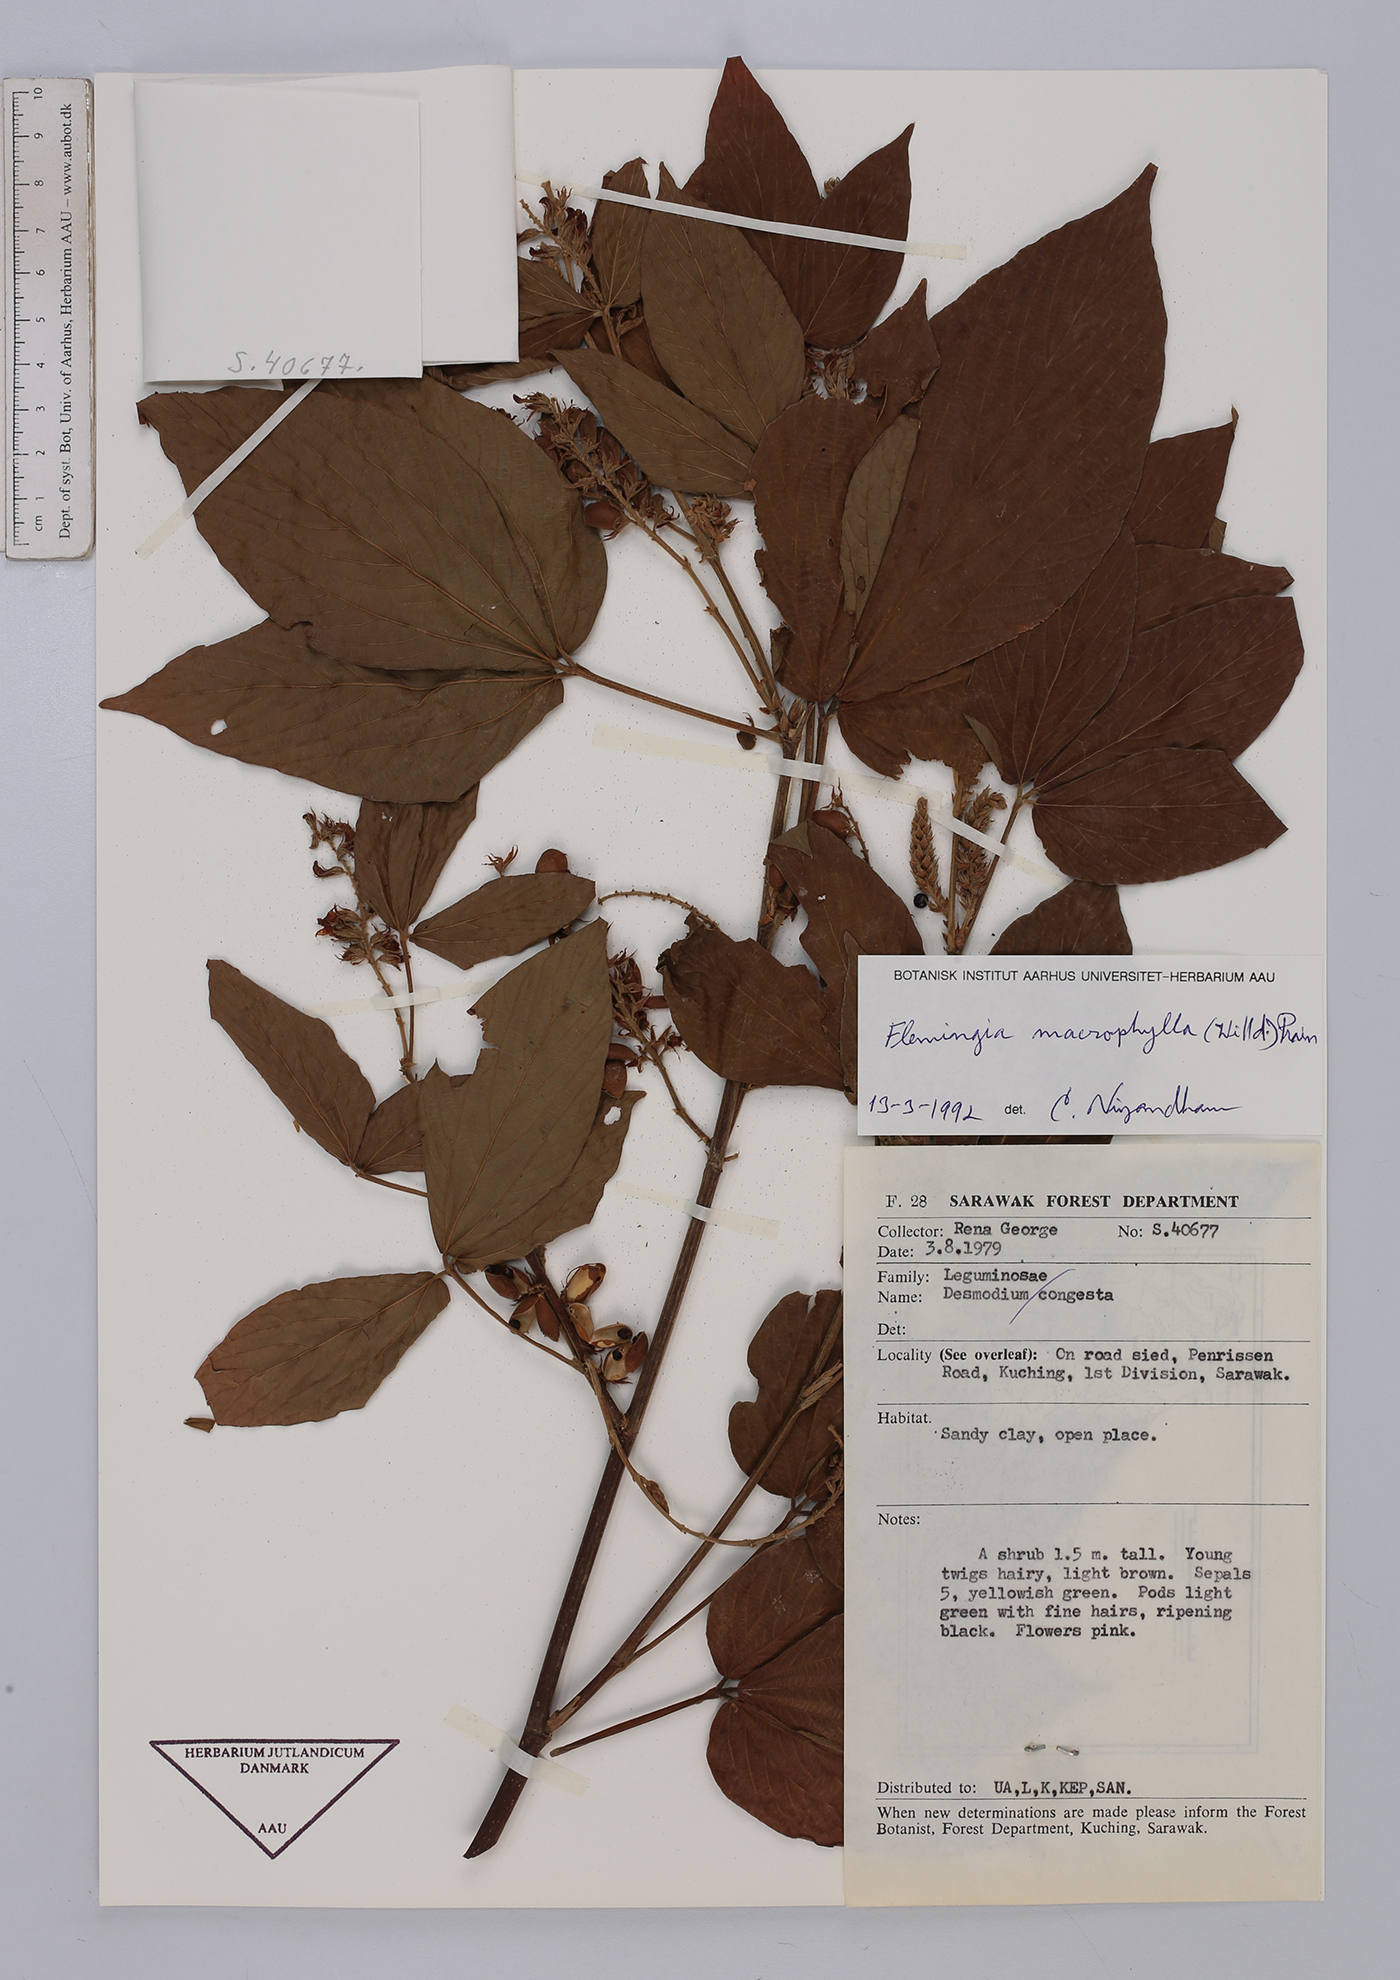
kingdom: Plantae
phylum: Tracheophyta
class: Magnoliopsida
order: Fabales
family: Fabaceae
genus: Flemingia
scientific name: Flemingia macrophylla
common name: Flemingia
